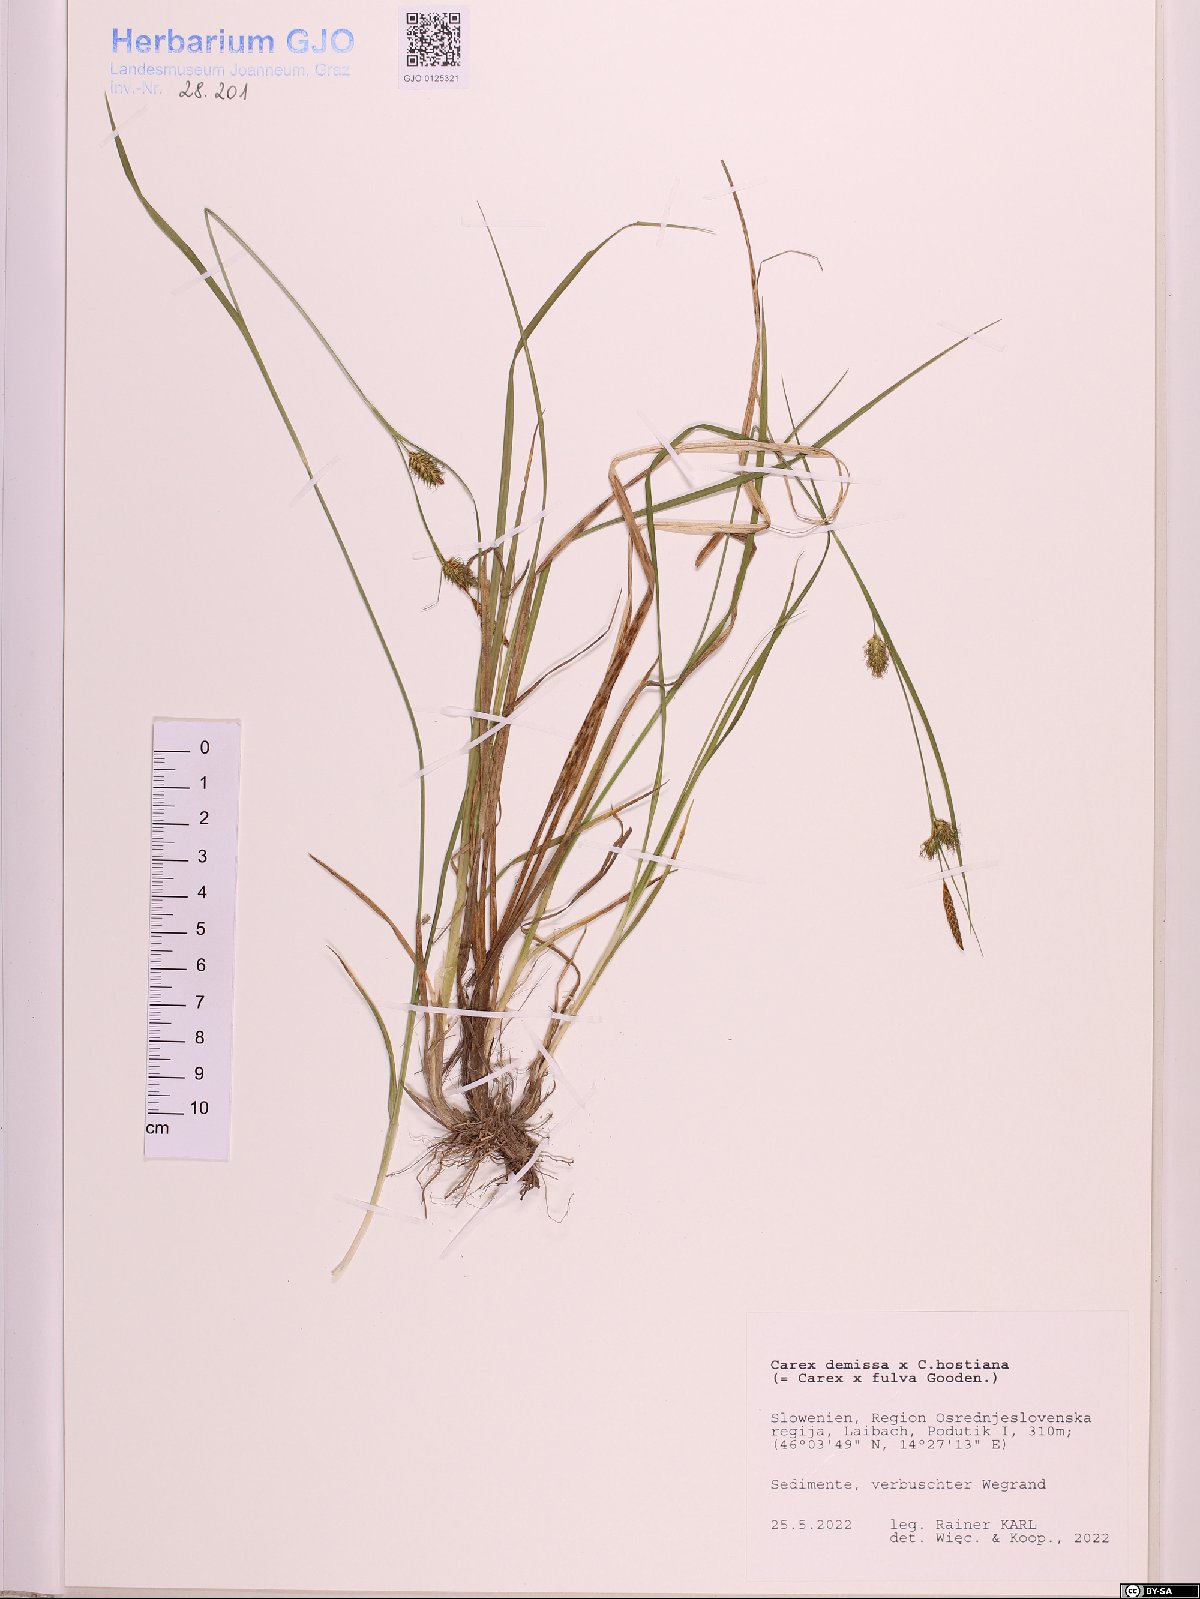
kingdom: Plantae
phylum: Tracheophyta
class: Liliopsida
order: Poales
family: Cyperaceae
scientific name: Cyperaceae
